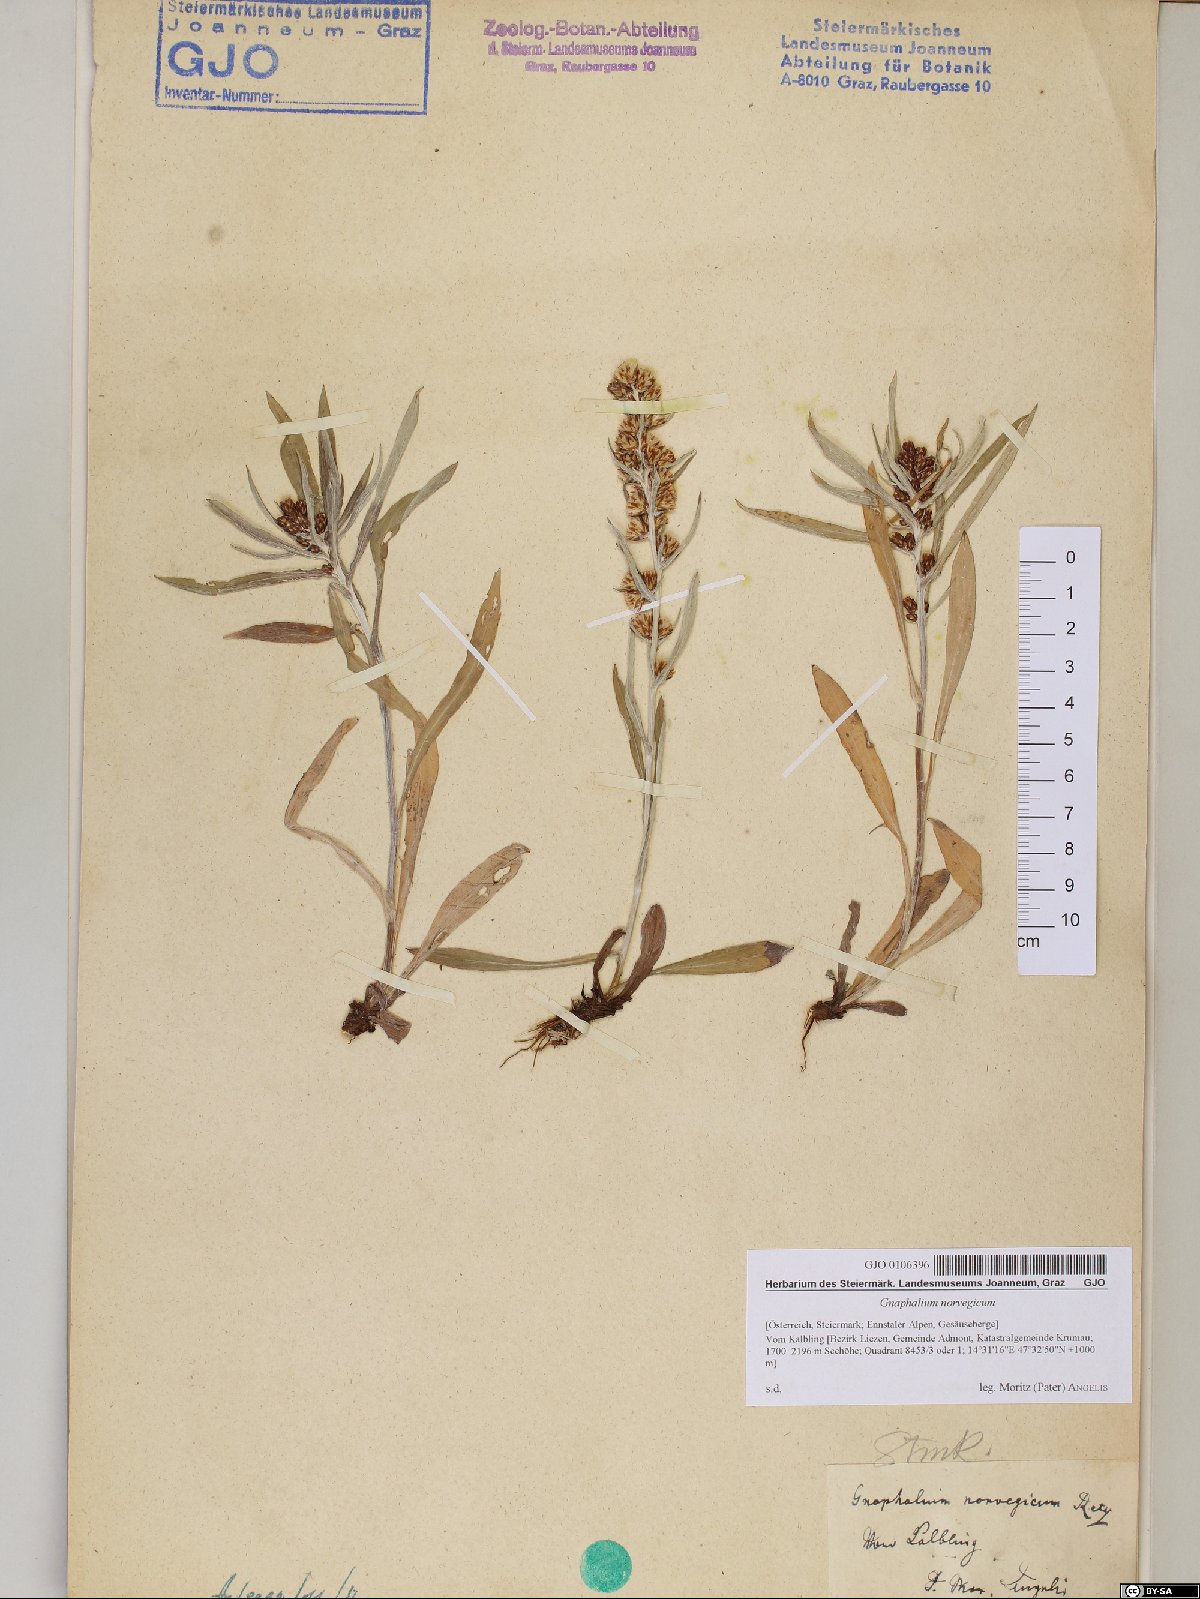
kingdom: Plantae
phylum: Tracheophyta
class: Magnoliopsida
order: Asterales
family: Asteraceae
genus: Omalotheca
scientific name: Omalotheca norvegica
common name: Norwegian arctic-cudweed
